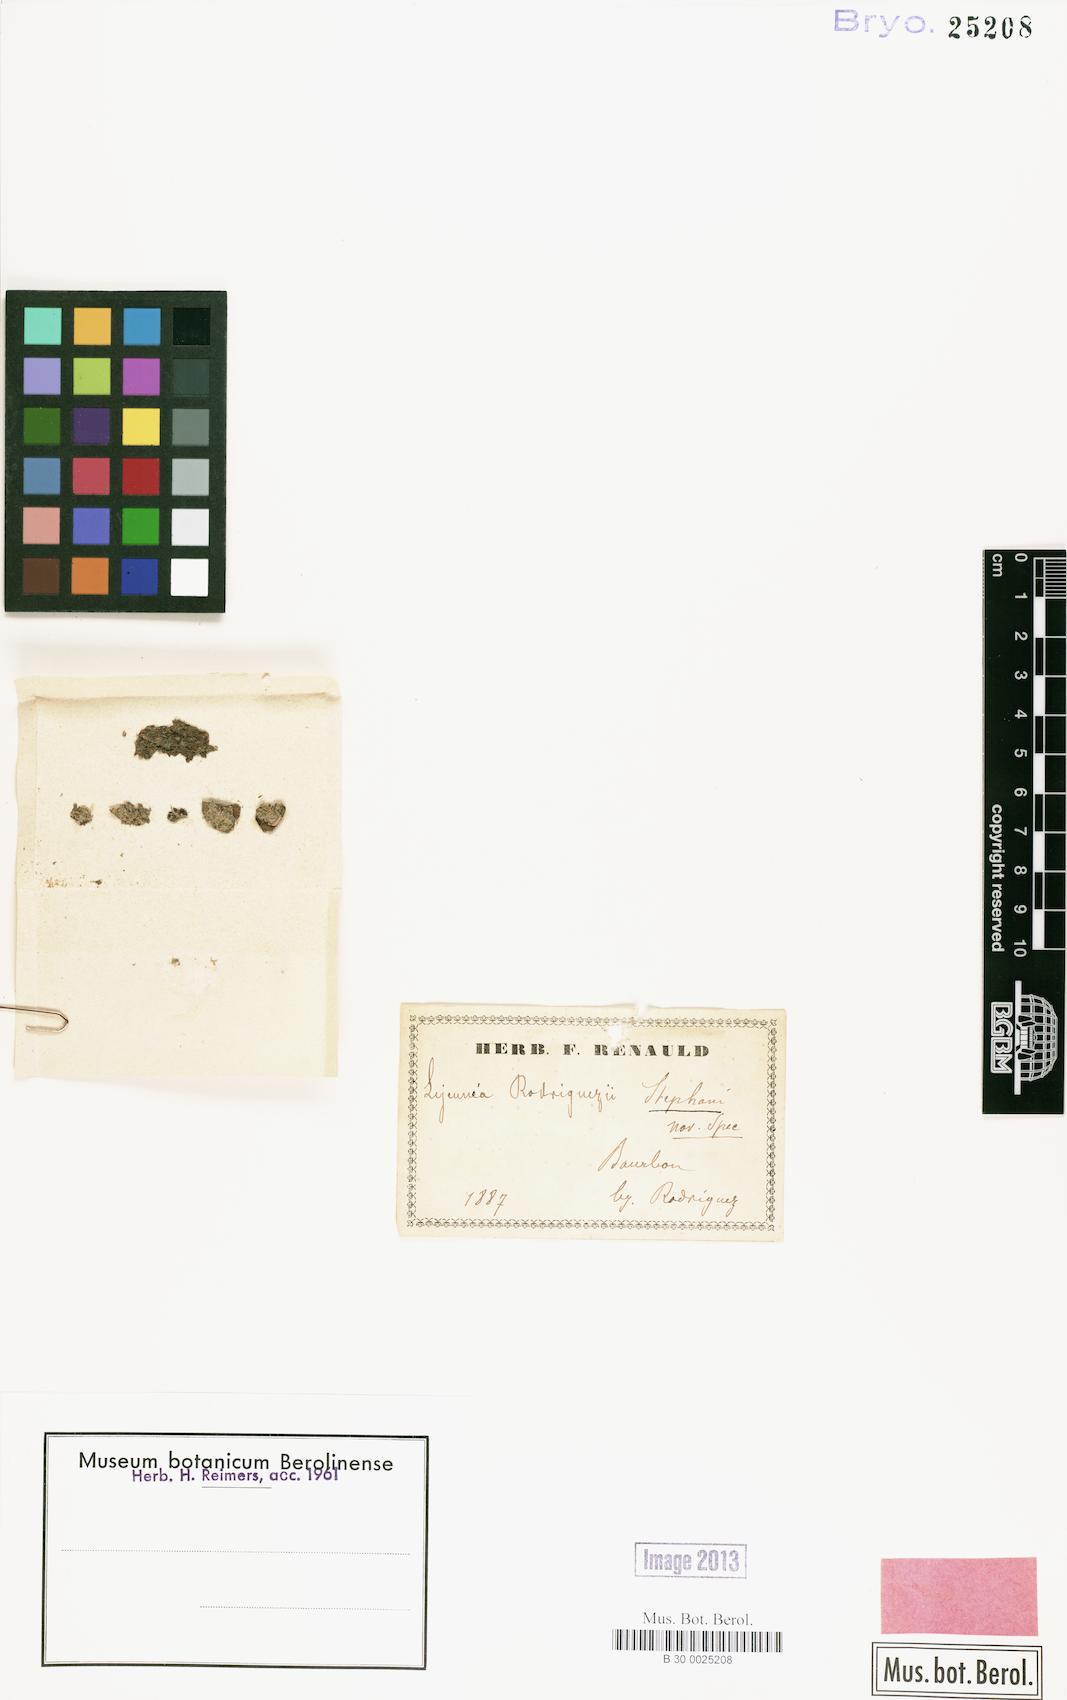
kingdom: Plantae
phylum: Marchantiophyta
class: Jungermanniopsida
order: Porellales
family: Lejeuneaceae
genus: Lejeunea
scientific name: Lejeunea adpressa
